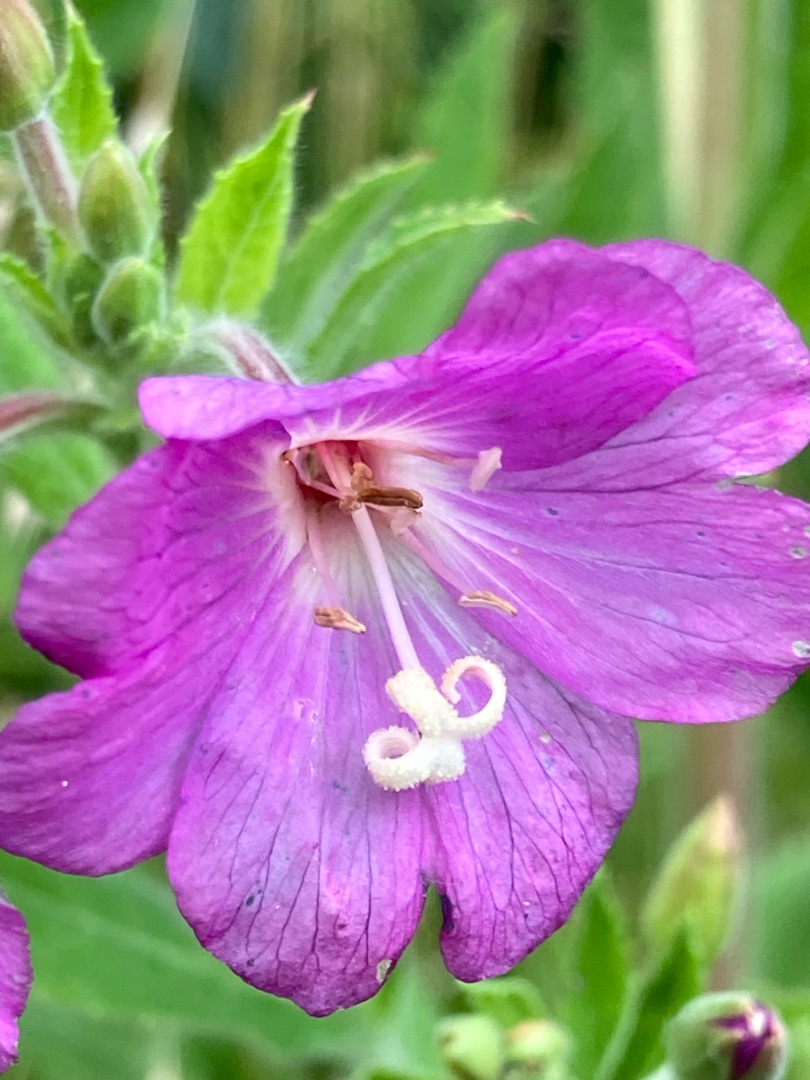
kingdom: Plantae
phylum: Tracheophyta
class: Magnoliopsida
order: Myrtales
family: Onagraceae
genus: Epilobium
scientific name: Epilobium hirsutum
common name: Lådden dueurt
